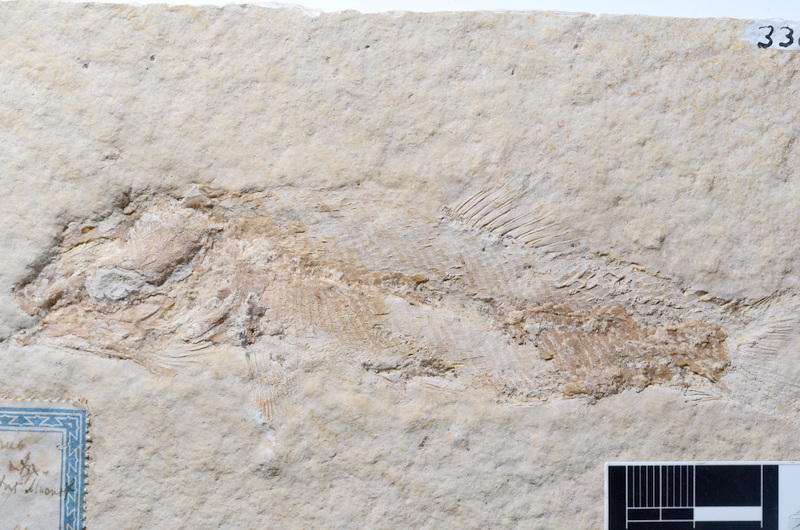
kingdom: Animalia
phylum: Chordata
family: Ophiopsiellidae
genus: Furo
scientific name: Furo longiserratus
